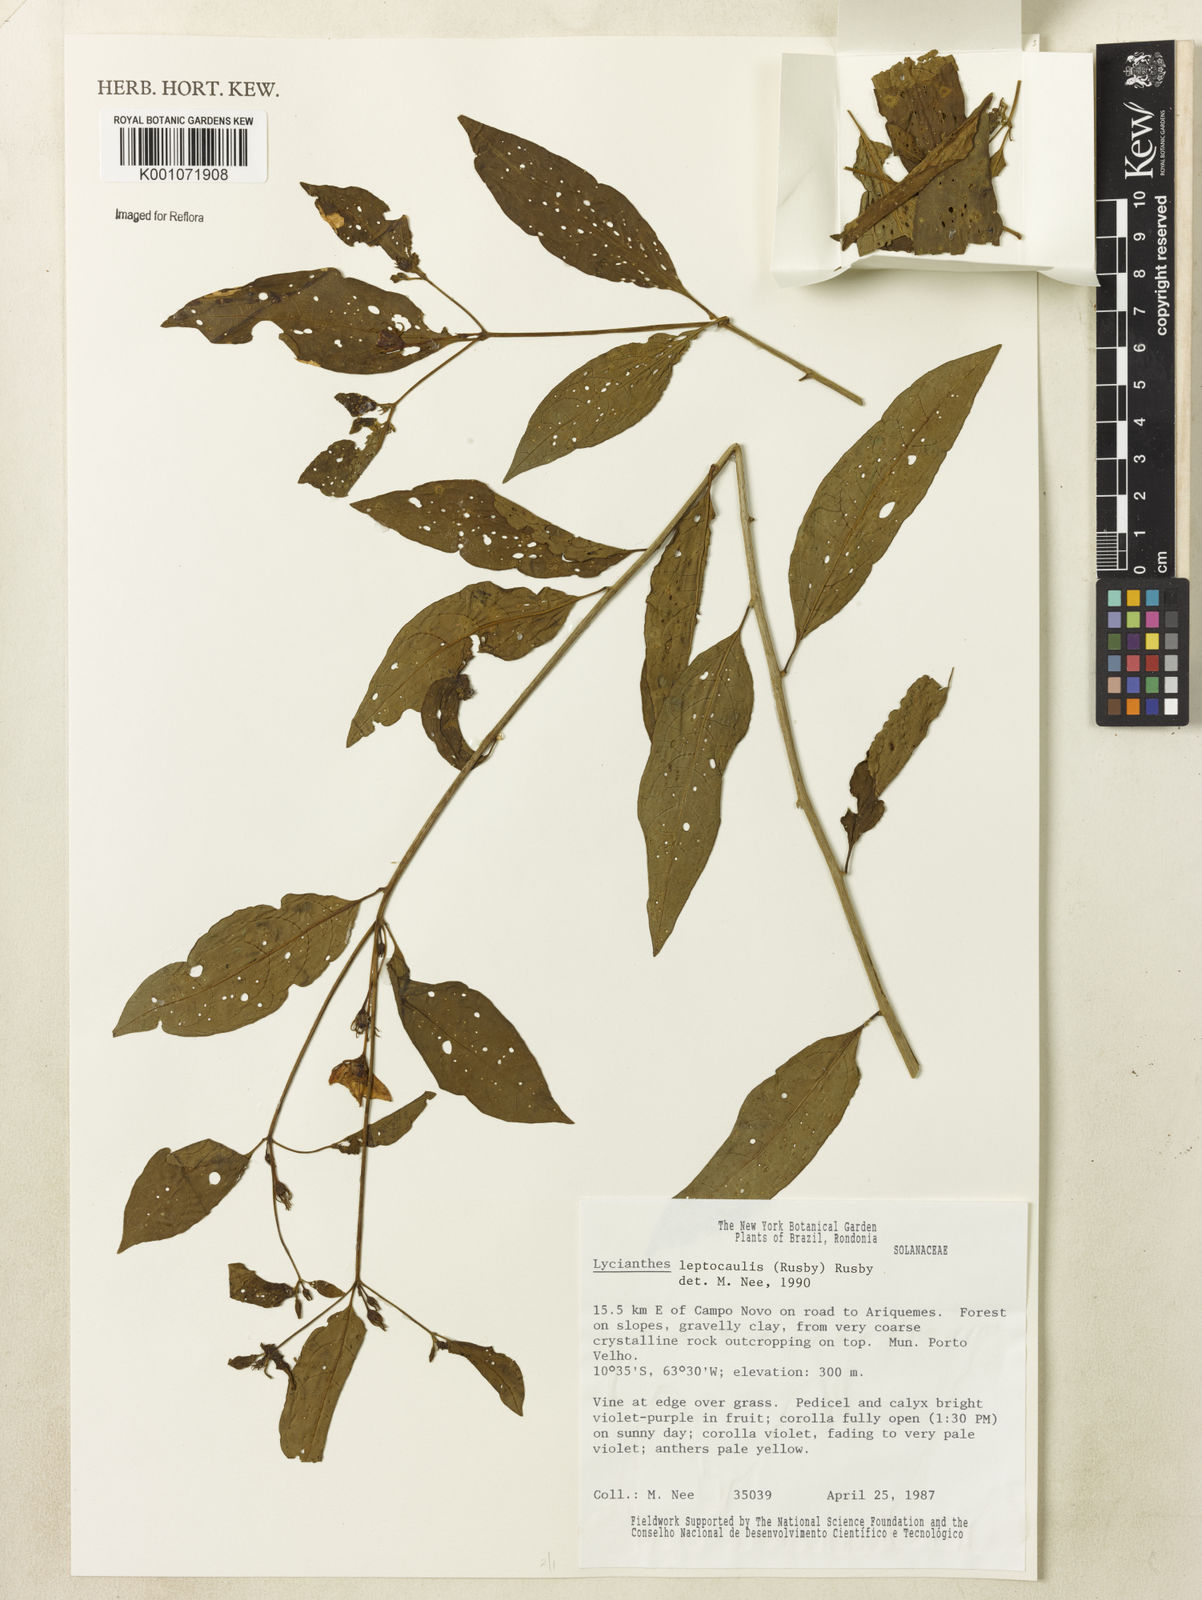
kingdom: Plantae
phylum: Tracheophyta
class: Magnoliopsida
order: Solanales
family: Solanaceae
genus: Lycianthes
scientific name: Lycianthes leptocaulis
